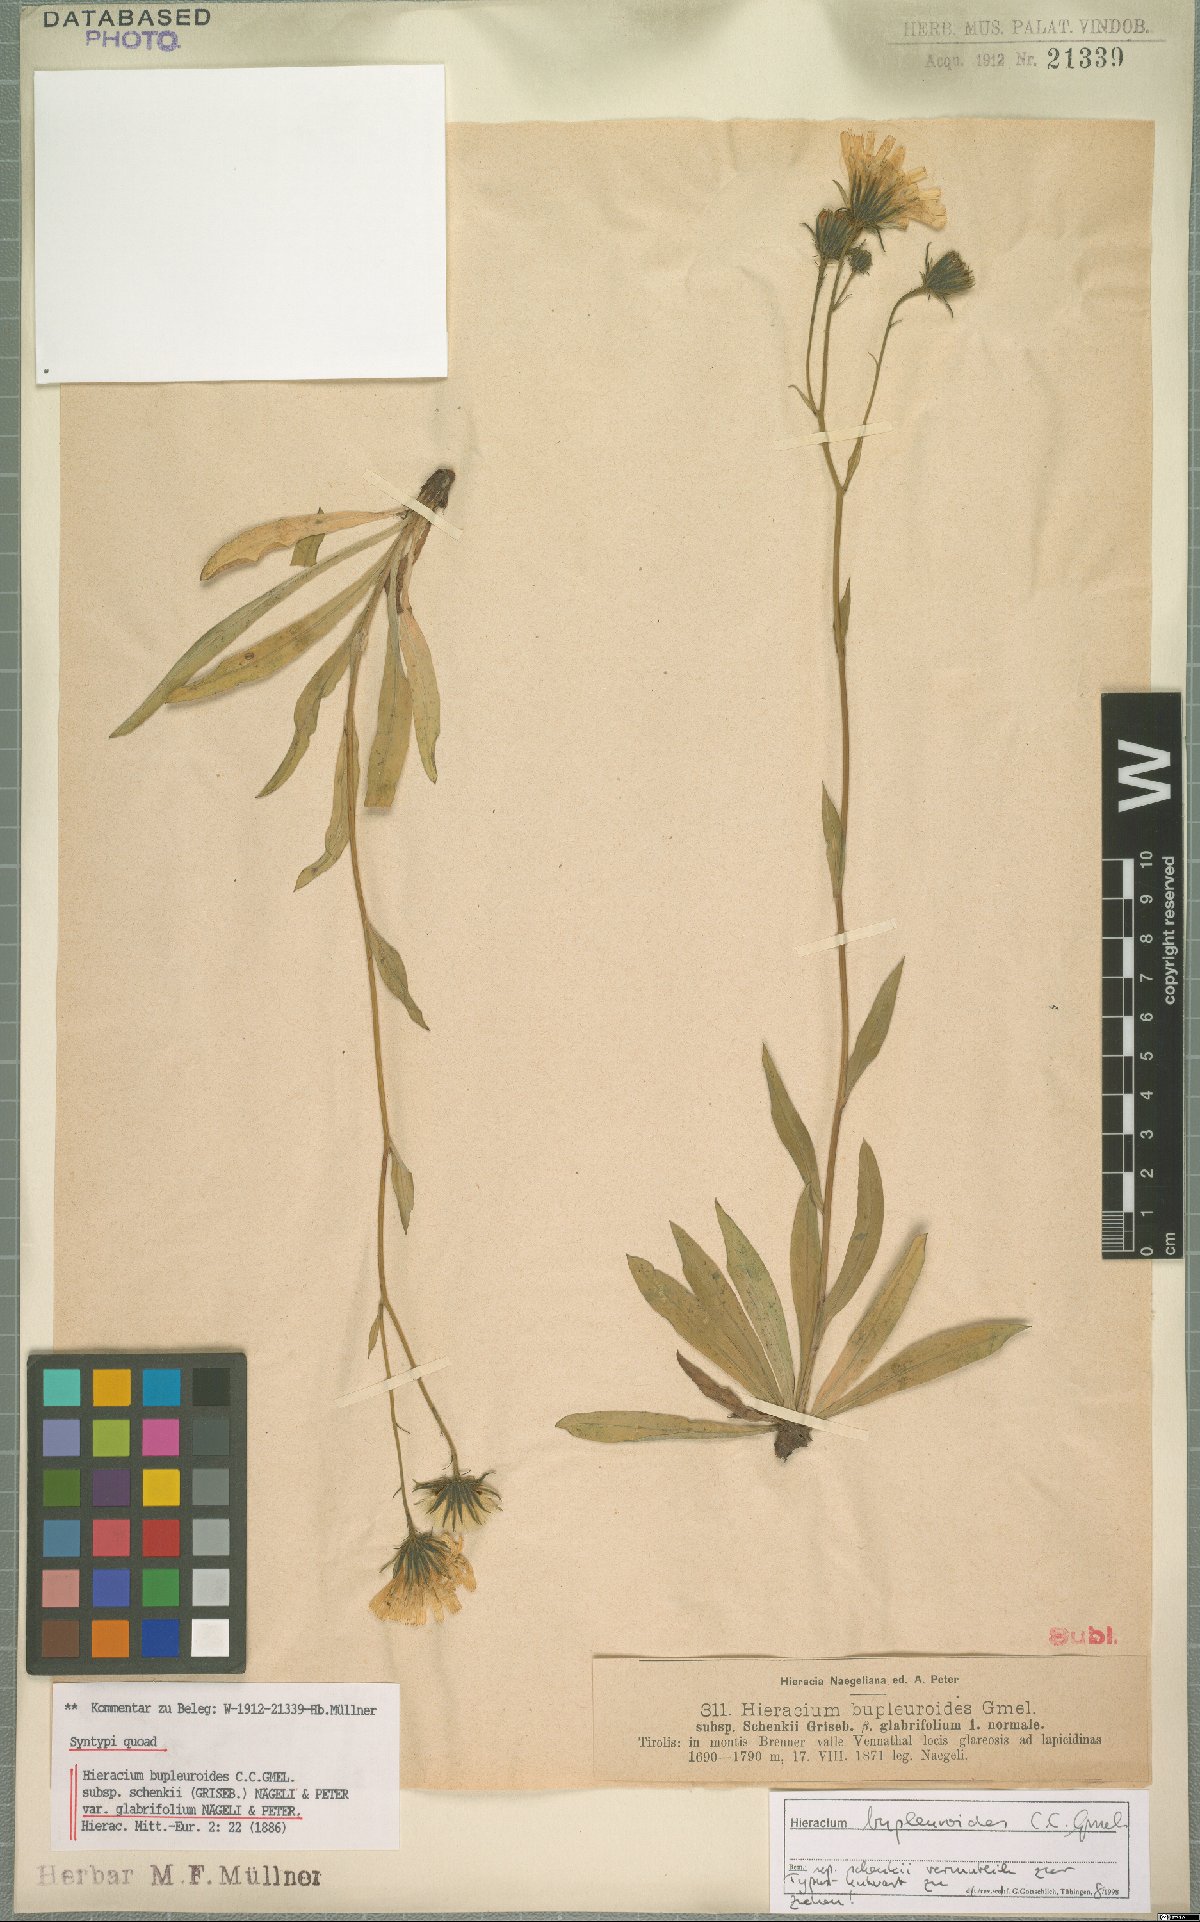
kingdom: Plantae
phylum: Tracheophyta
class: Magnoliopsida
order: Asterales
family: Asteraceae
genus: Hieracium
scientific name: Hieracium bupleuroides
